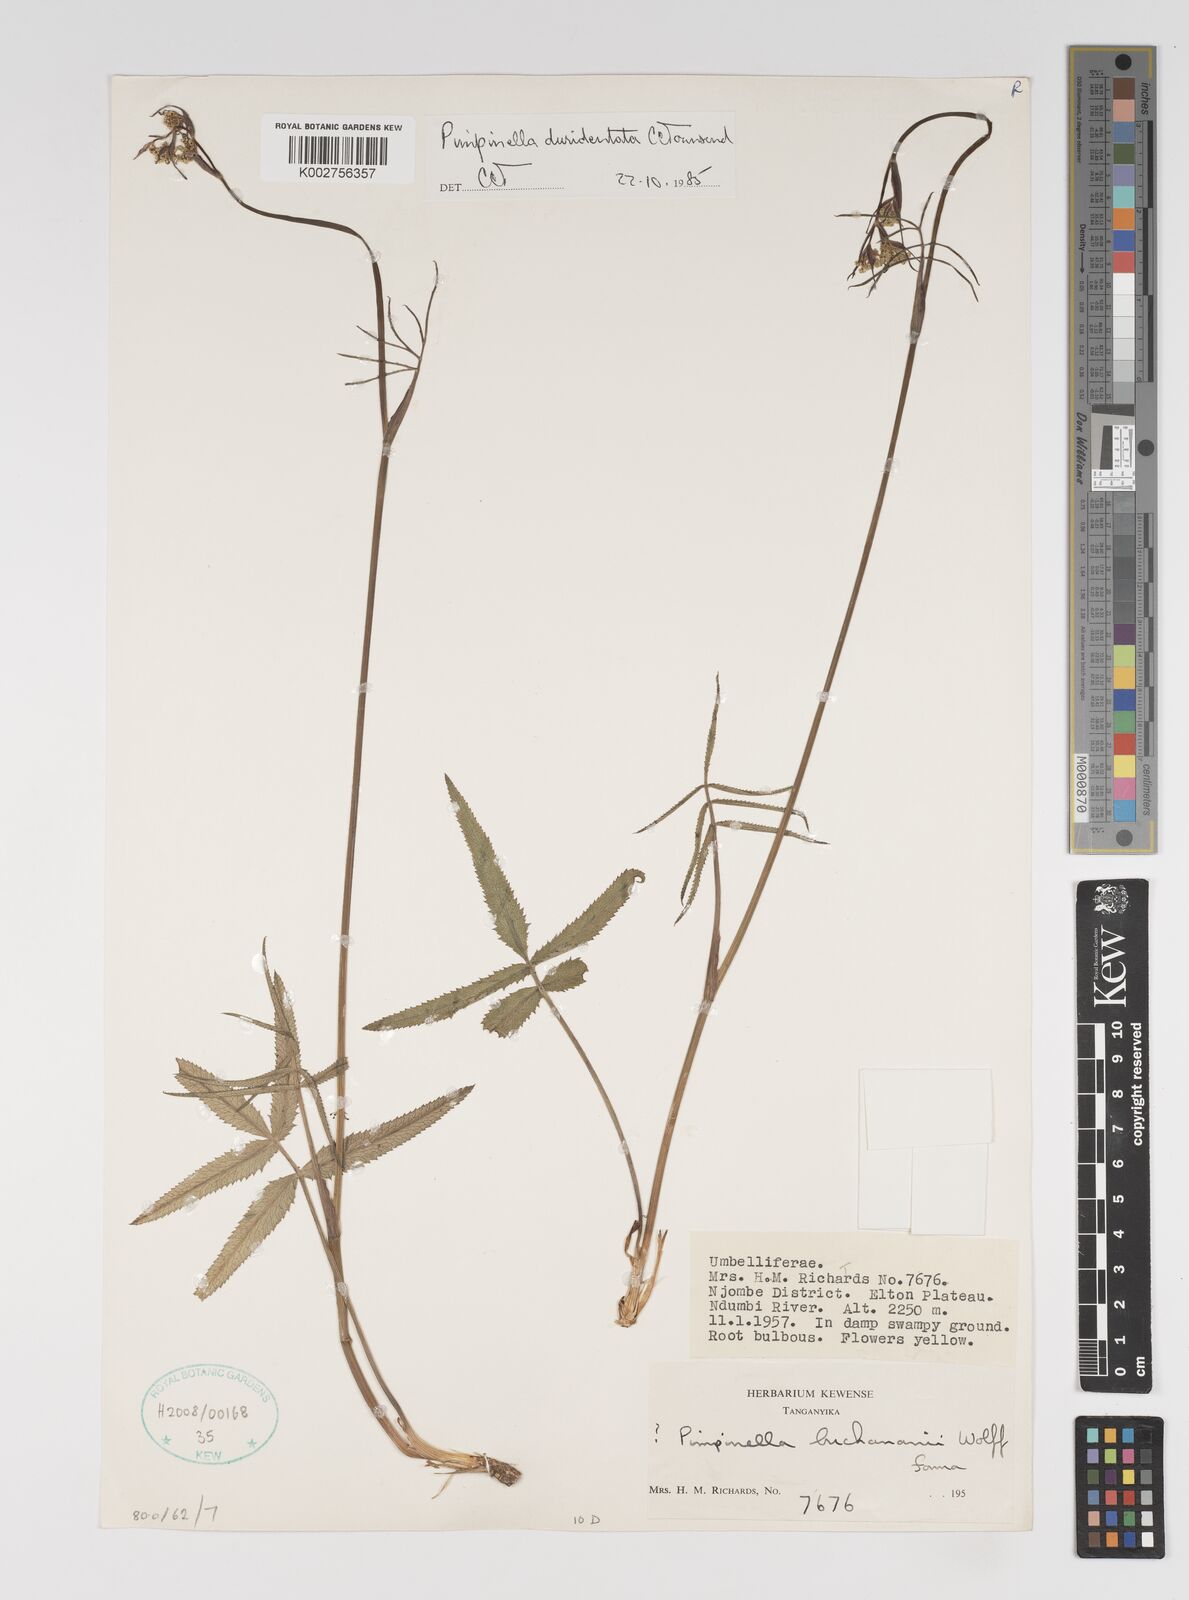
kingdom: Plantae
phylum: Tracheophyta
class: Magnoliopsida
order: Apiales
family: Apiaceae
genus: Pimpinella
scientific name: Pimpinella buchananii
